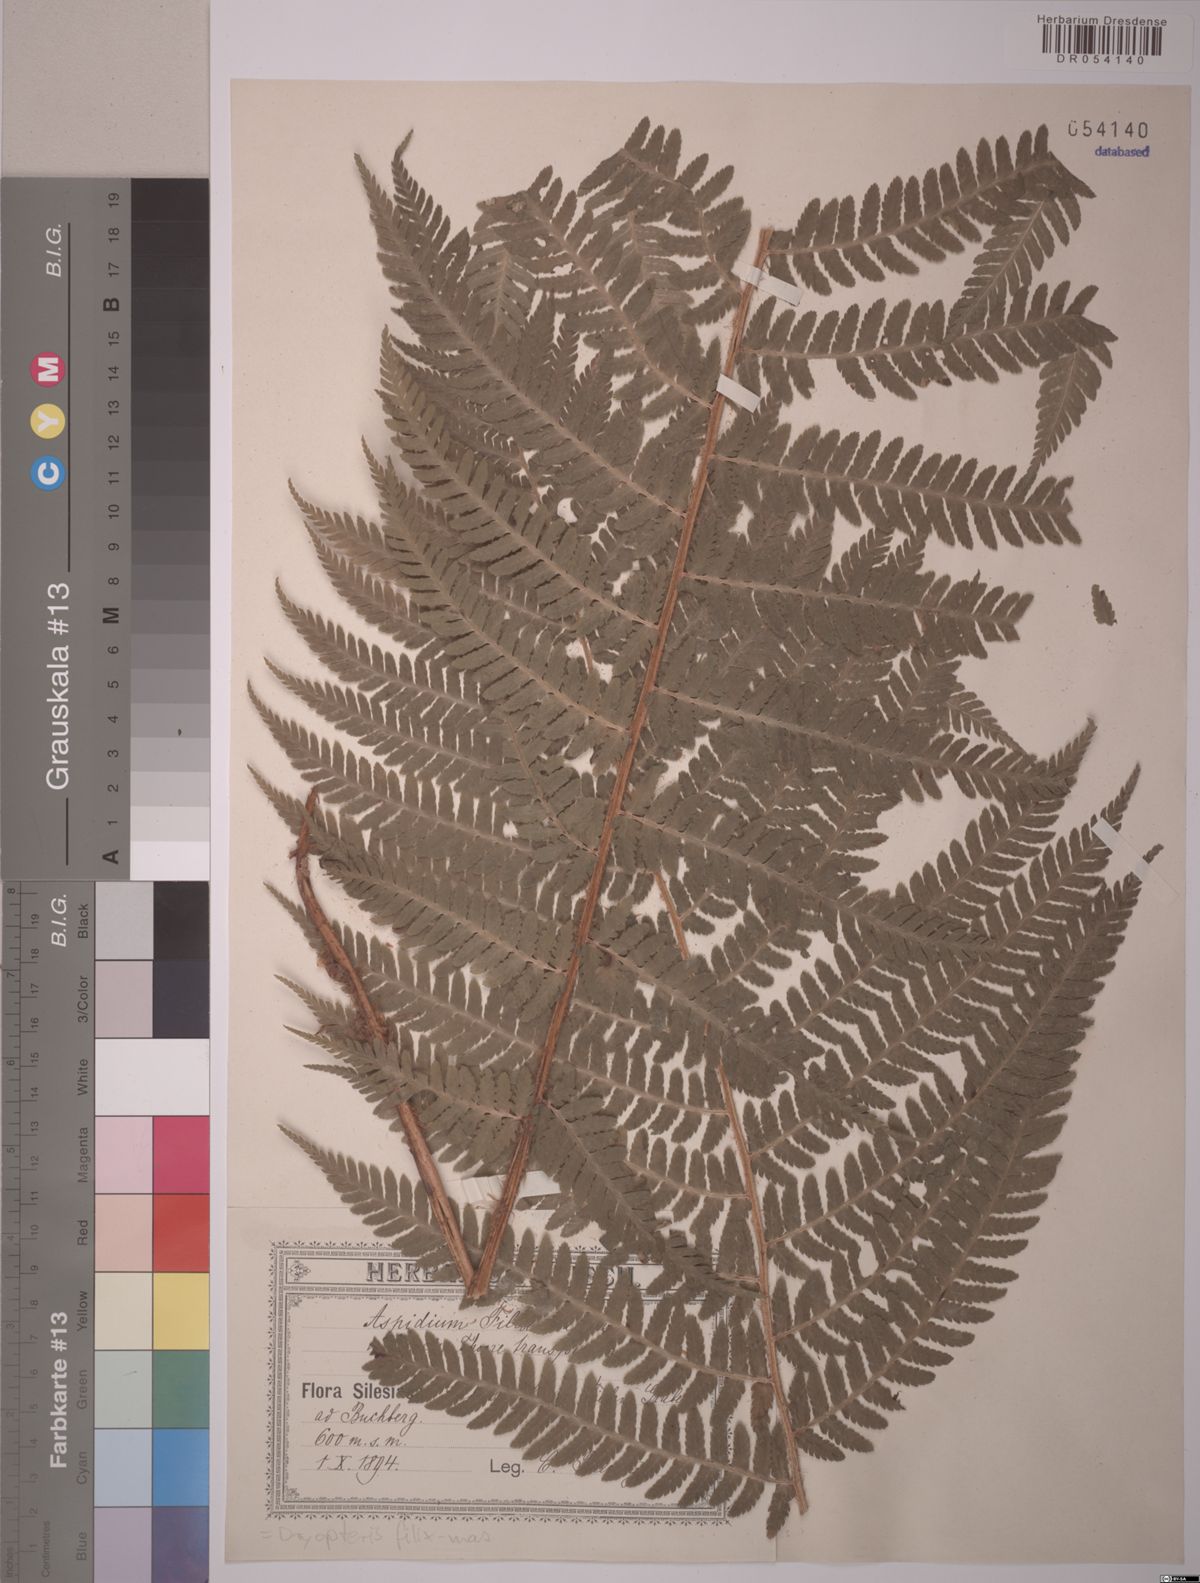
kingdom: Plantae
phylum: Tracheophyta
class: Polypodiopsida
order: Polypodiales
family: Dryopteridaceae
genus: Dryopteris
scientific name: Dryopteris filix-mas
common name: Male fern
